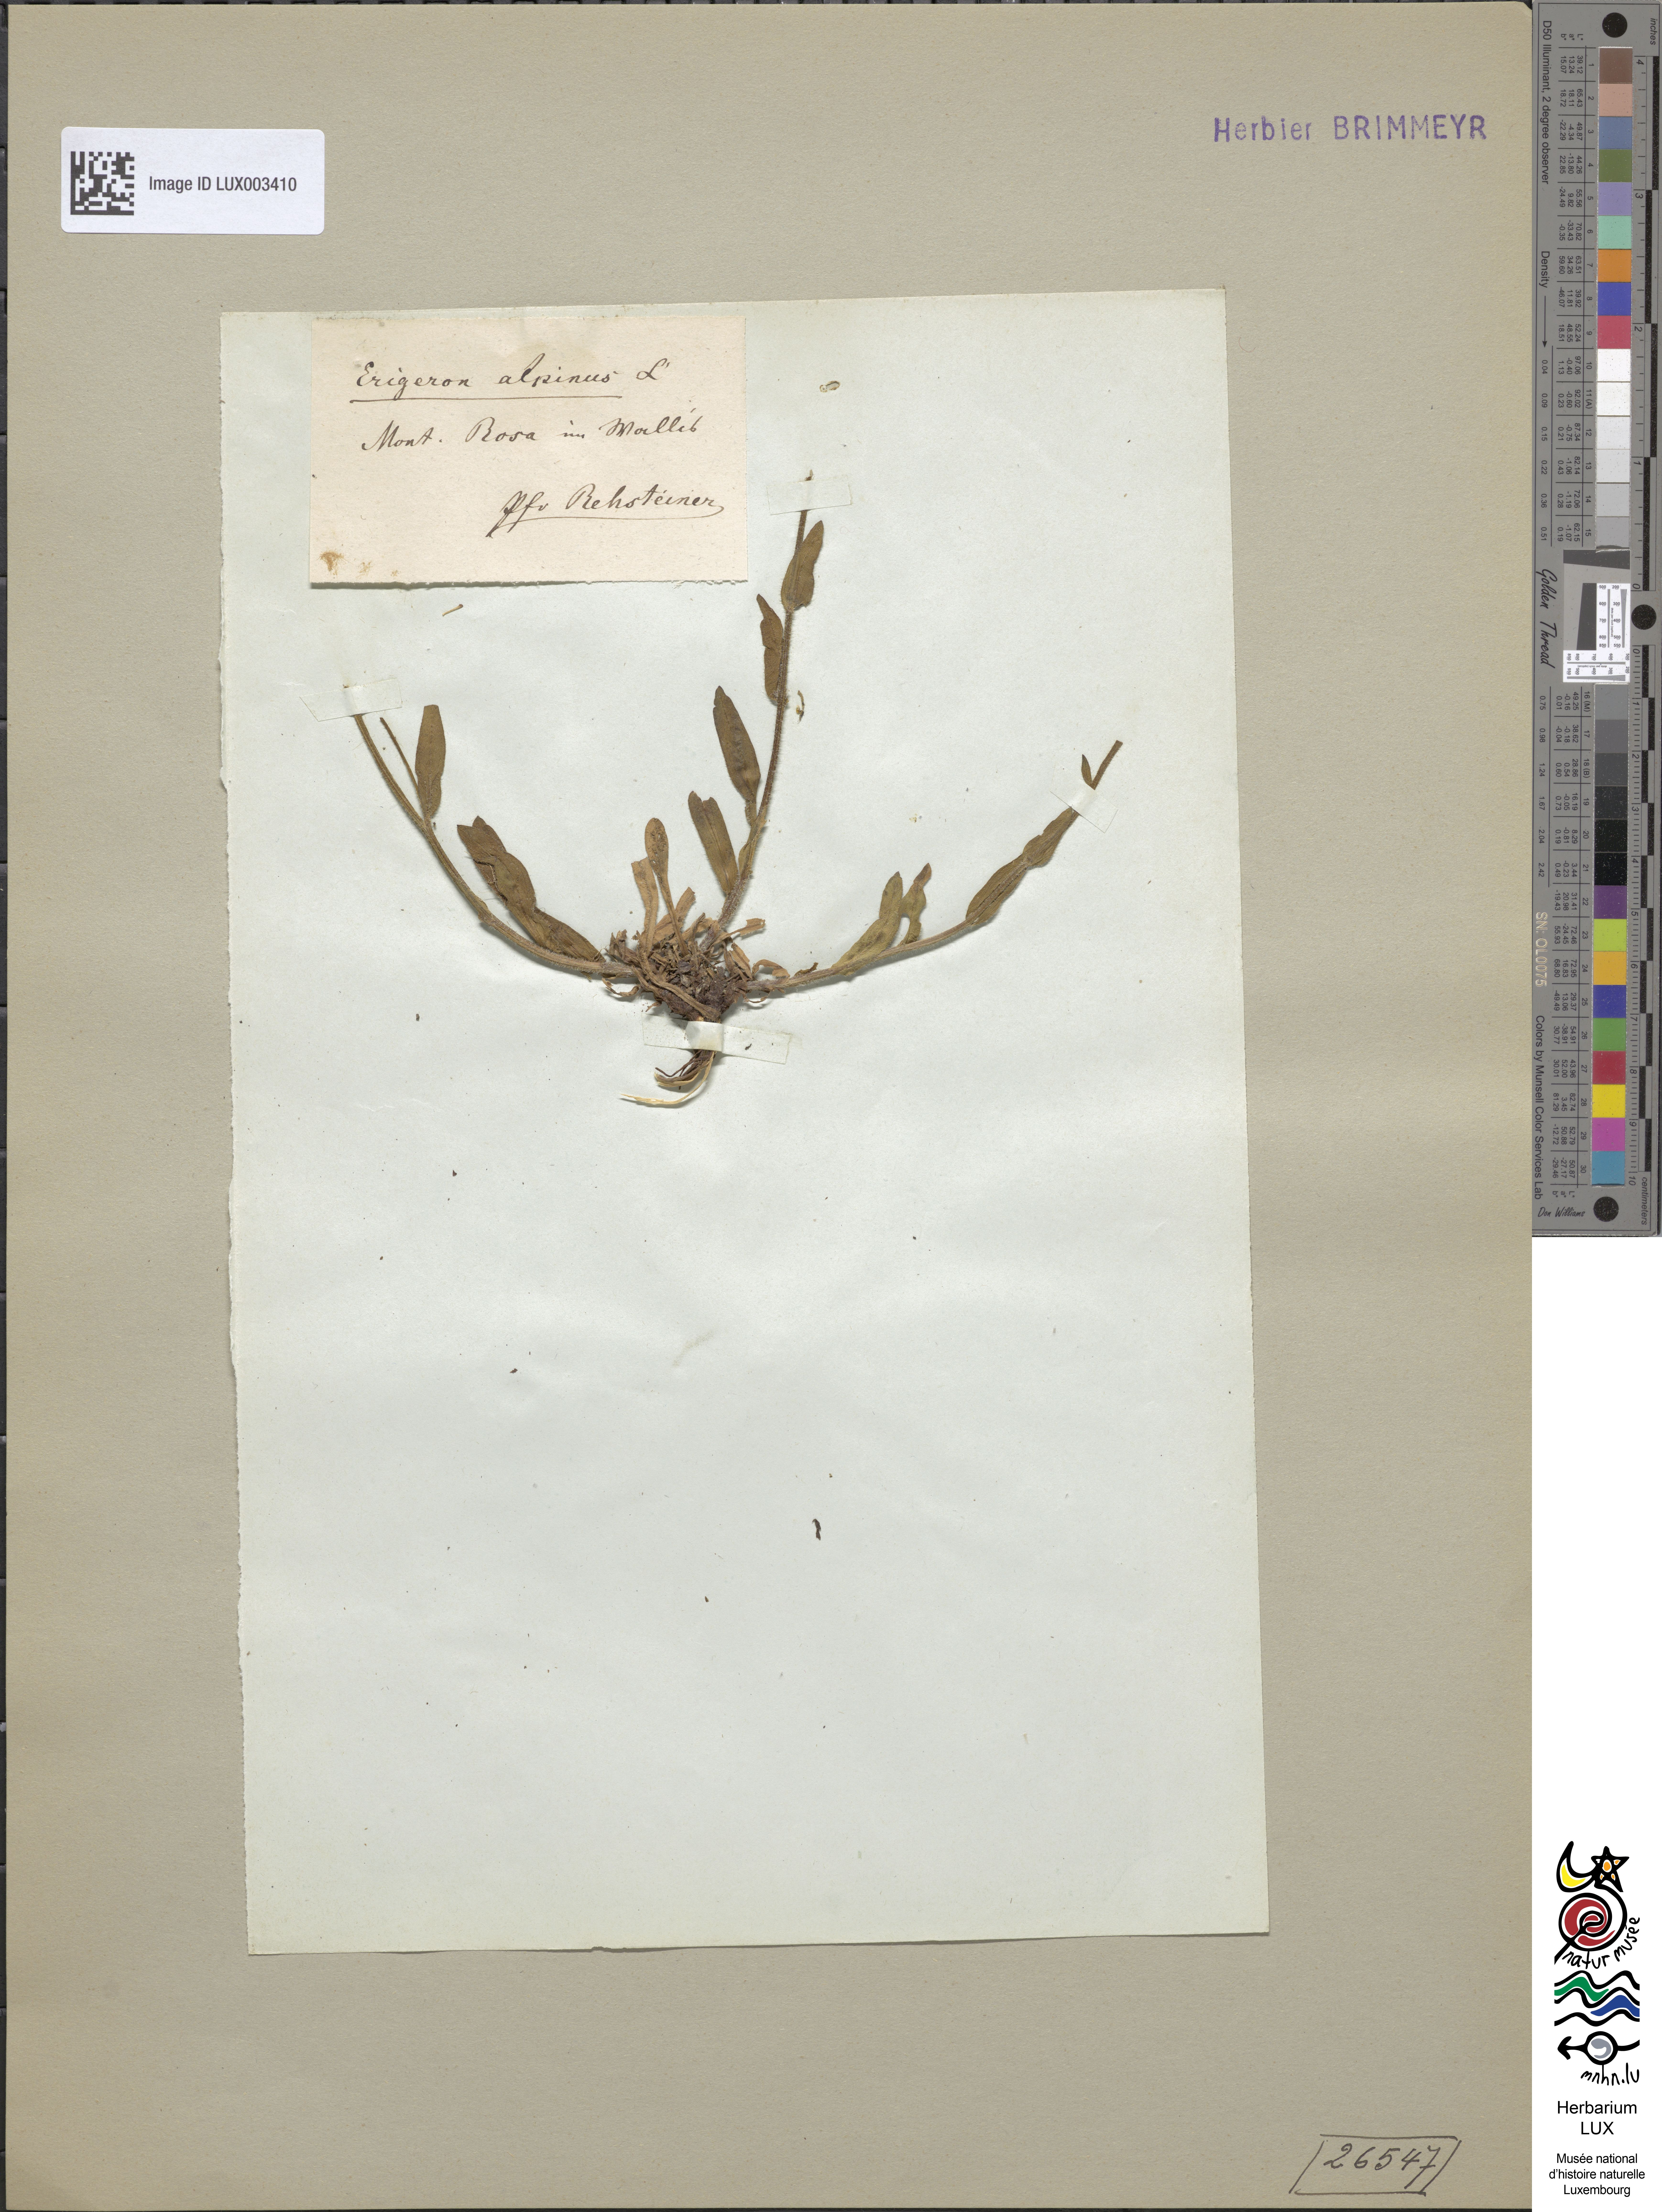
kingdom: Plantae
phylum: Tracheophyta
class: Magnoliopsida
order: Asterales
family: Asteraceae
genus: Erigeron
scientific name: Erigeron alpinus
